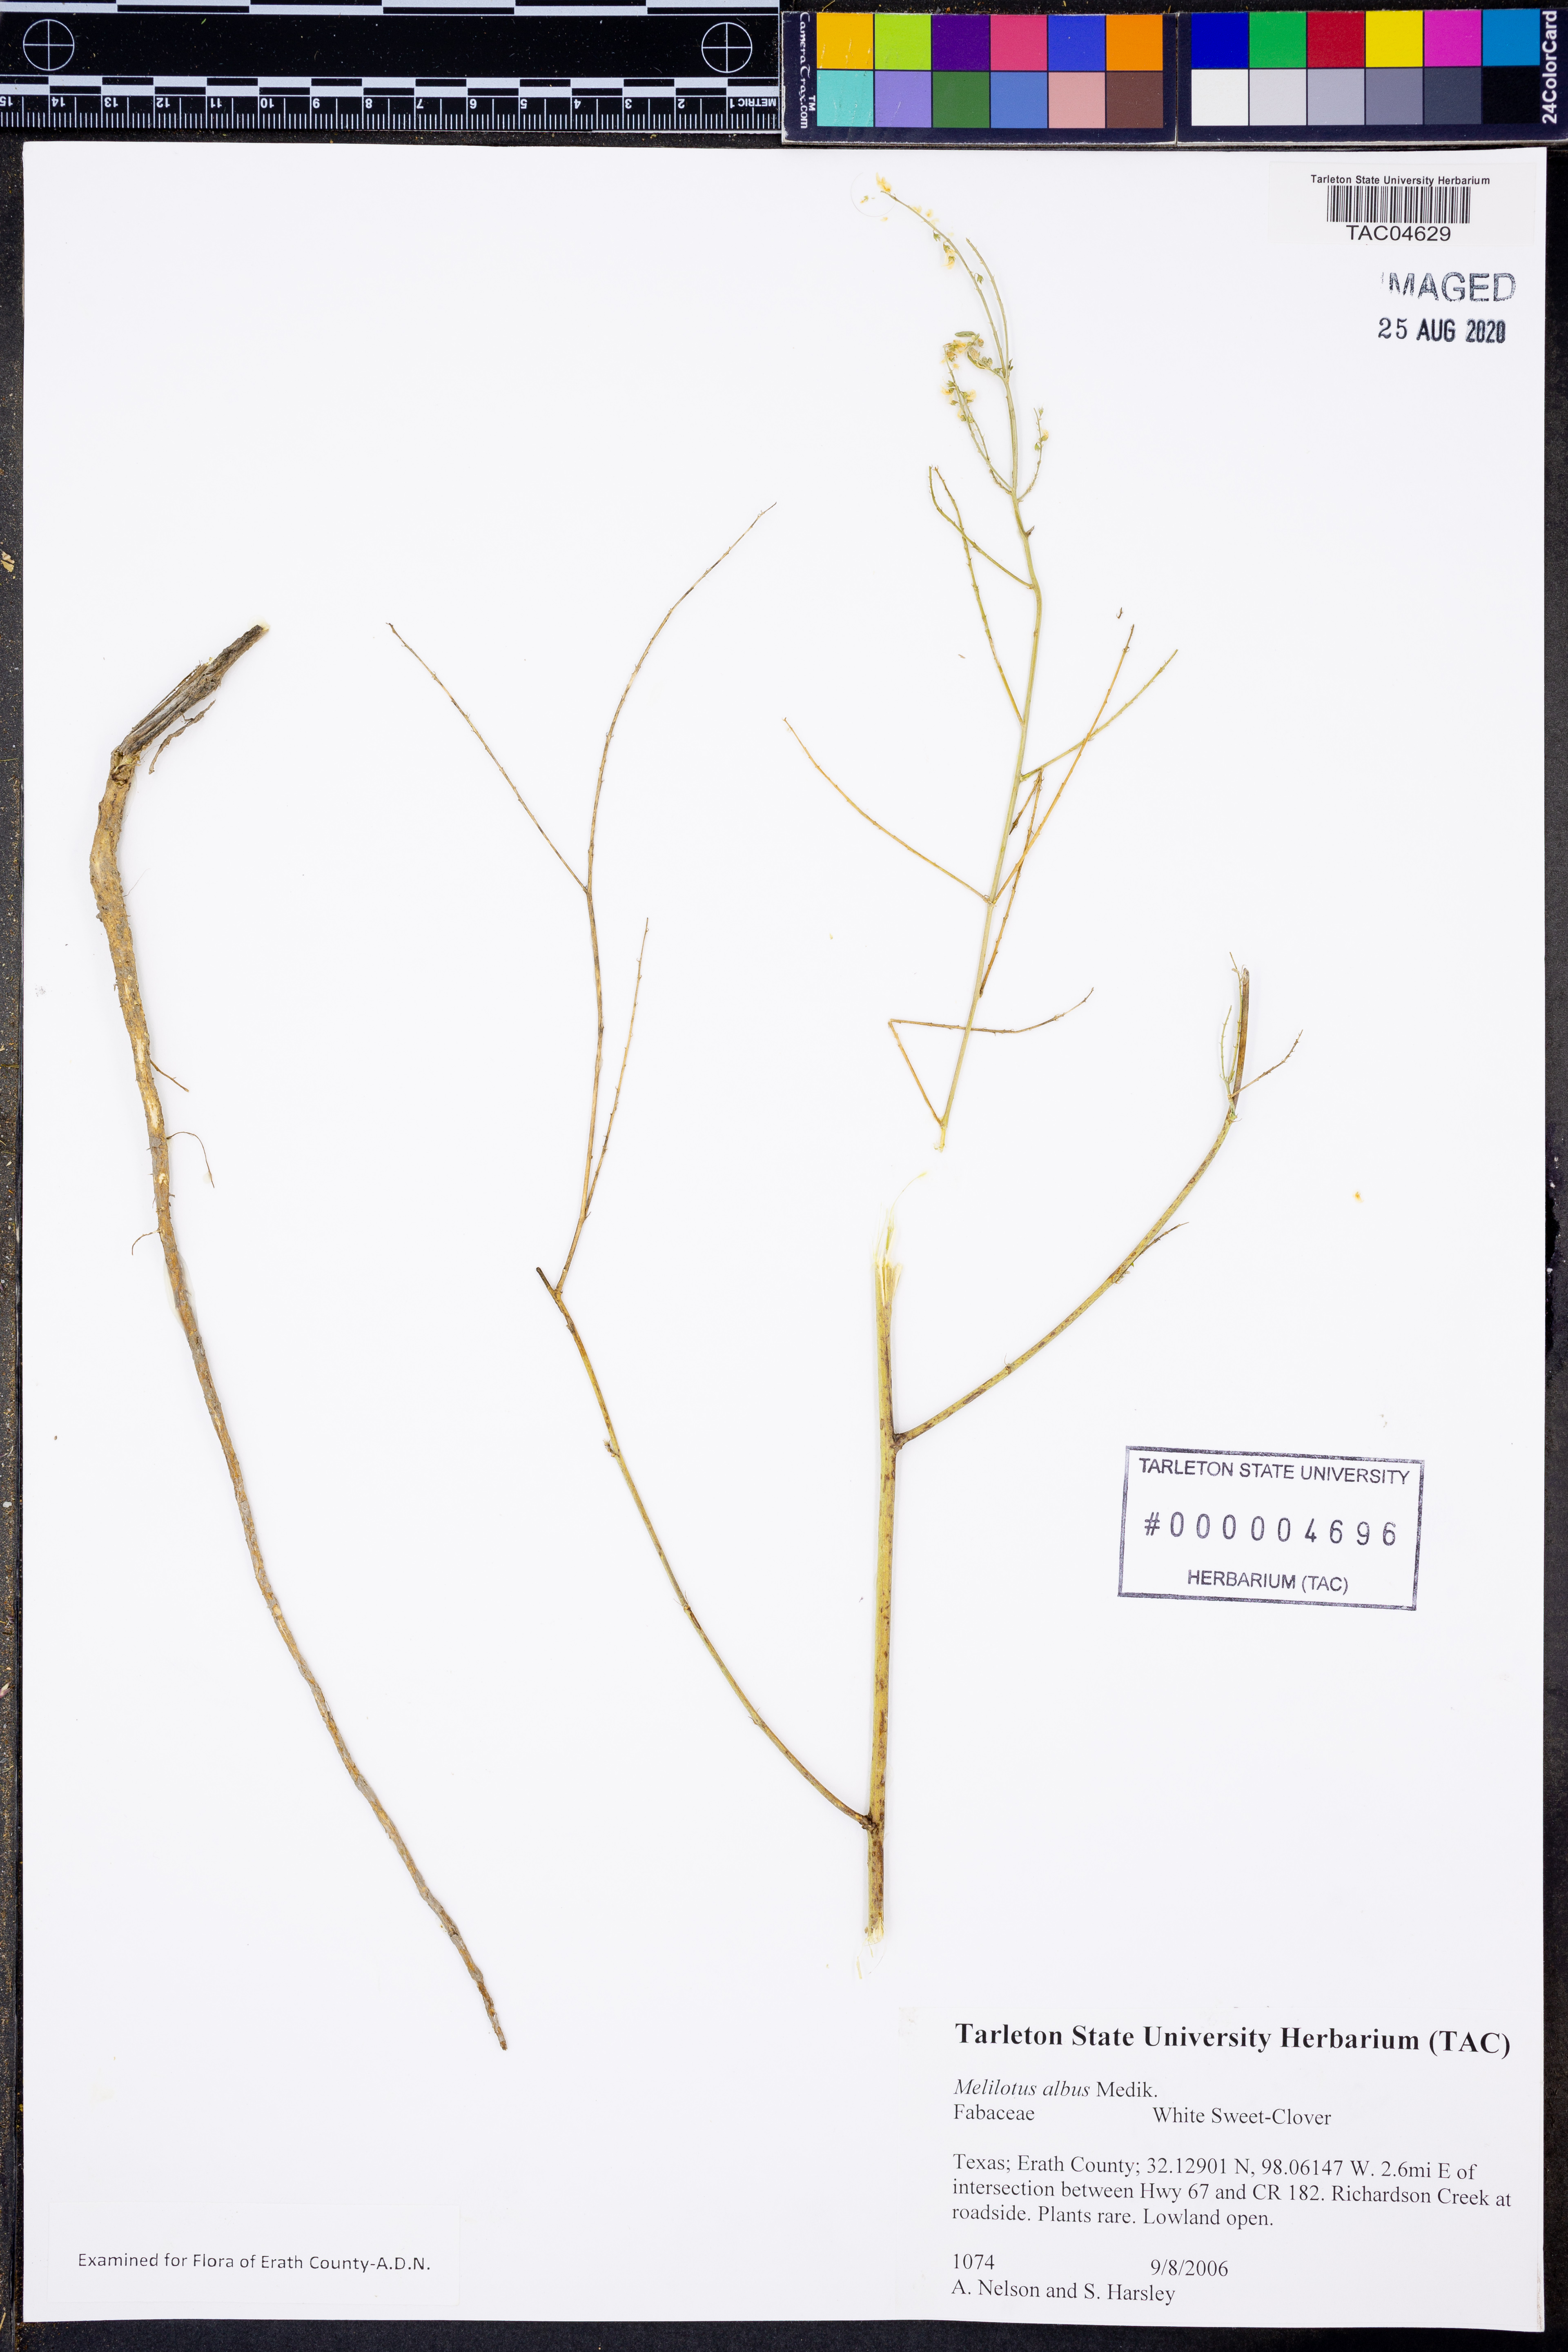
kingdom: Plantae
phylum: Tracheophyta
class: Magnoliopsida
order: Fabales
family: Fabaceae
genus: Melilotus
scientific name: Melilotus albus
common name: White melilot
